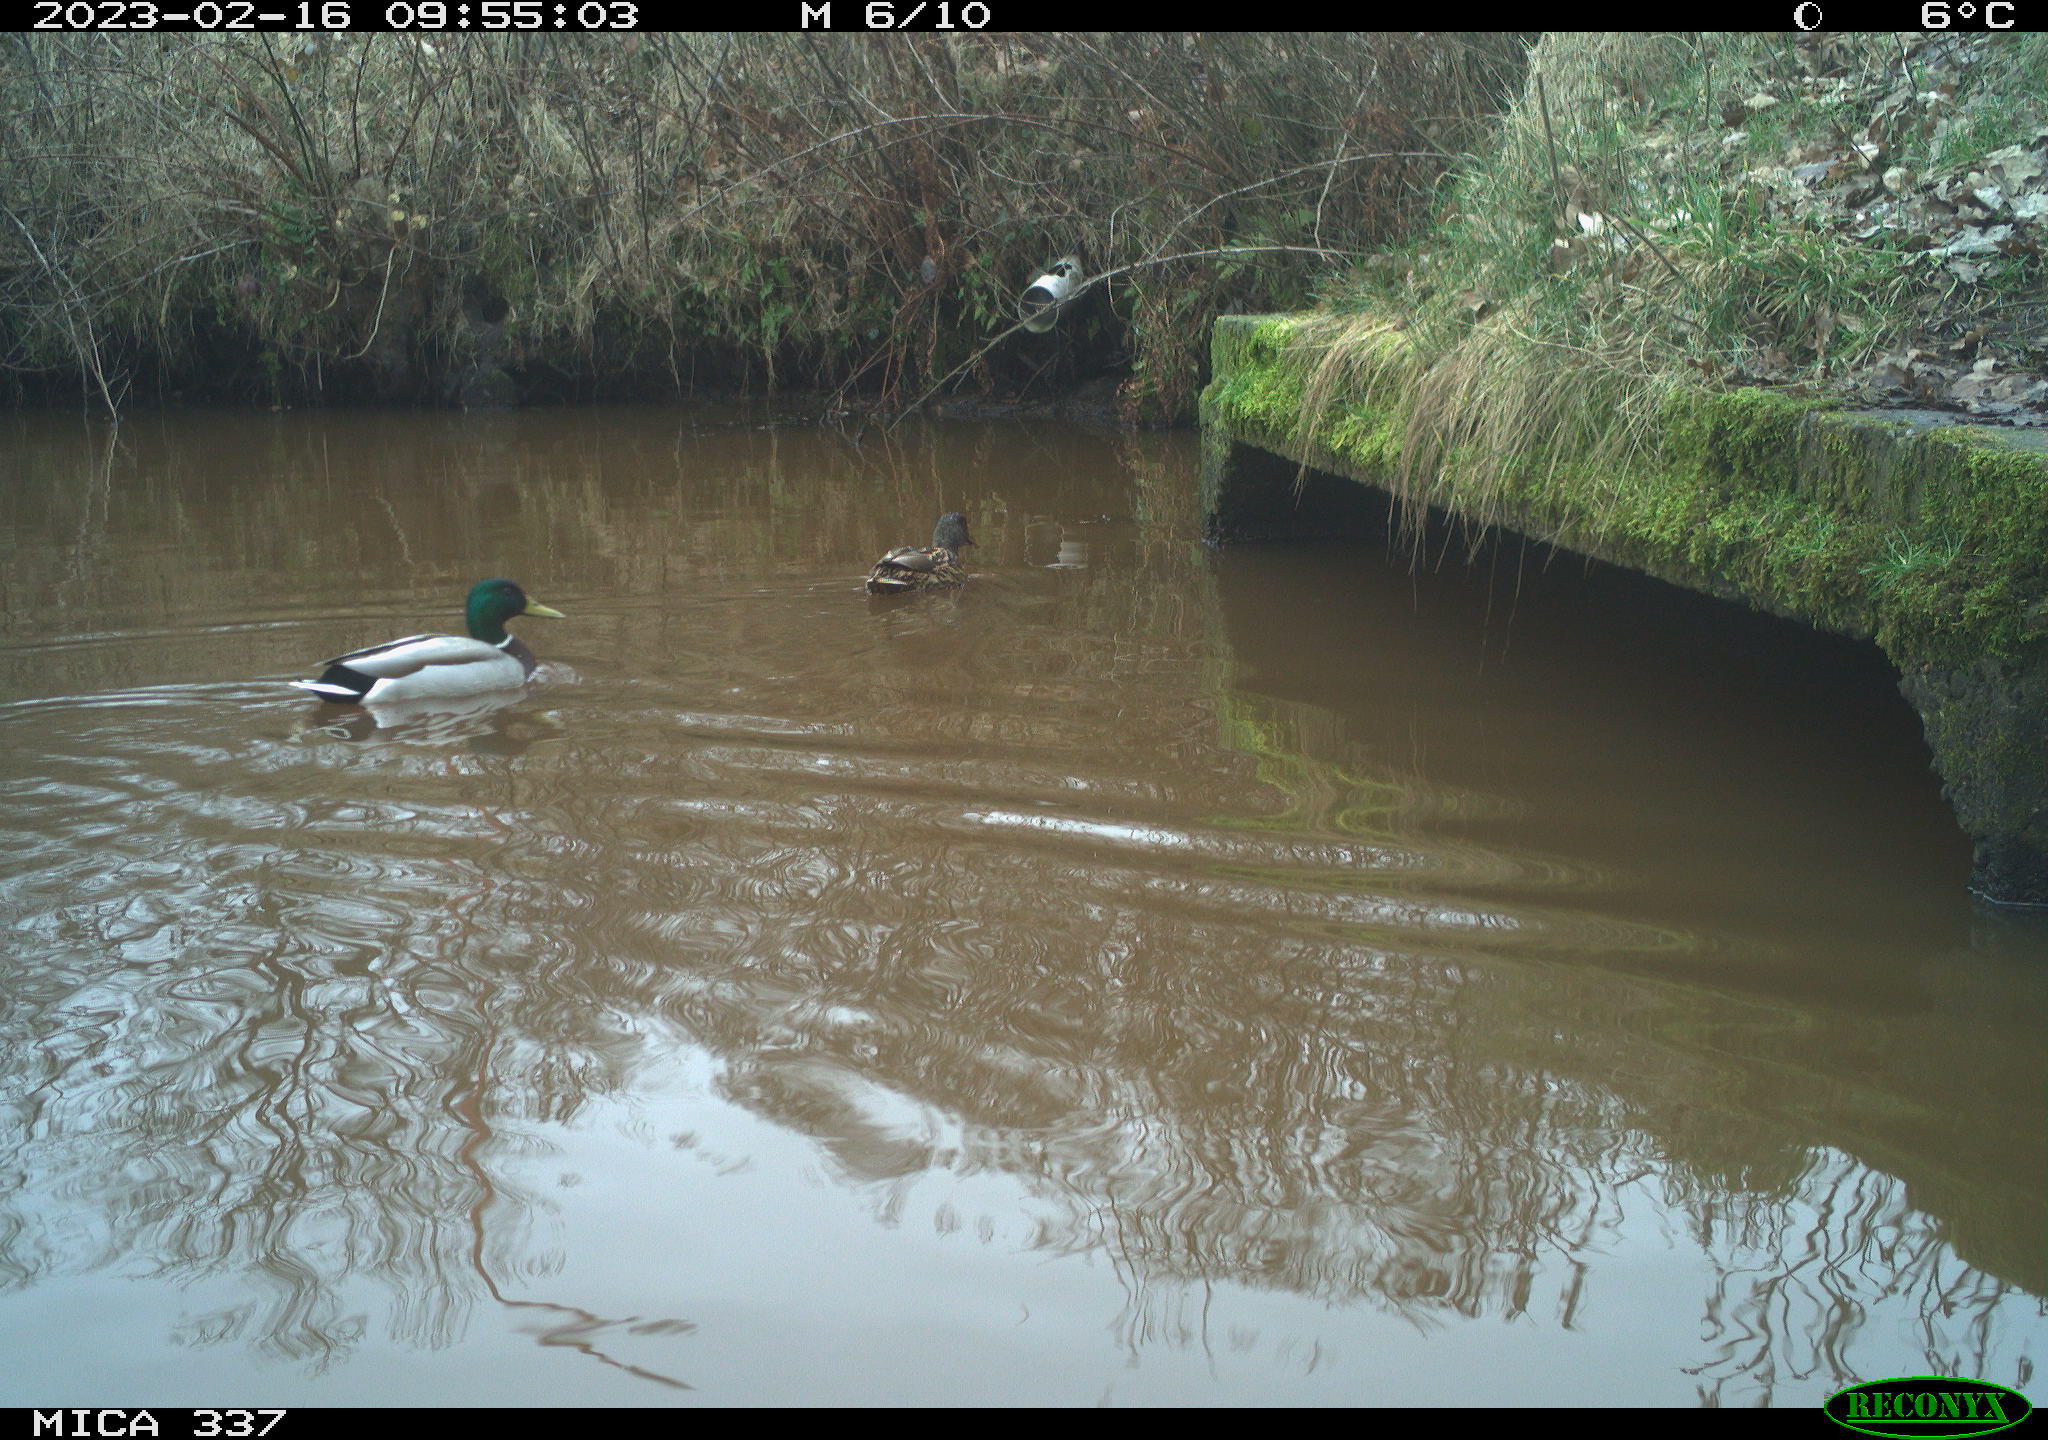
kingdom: Animalia
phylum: Chordata
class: Aves
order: Anseriformes
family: Anatidae
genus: Anas
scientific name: Anas
